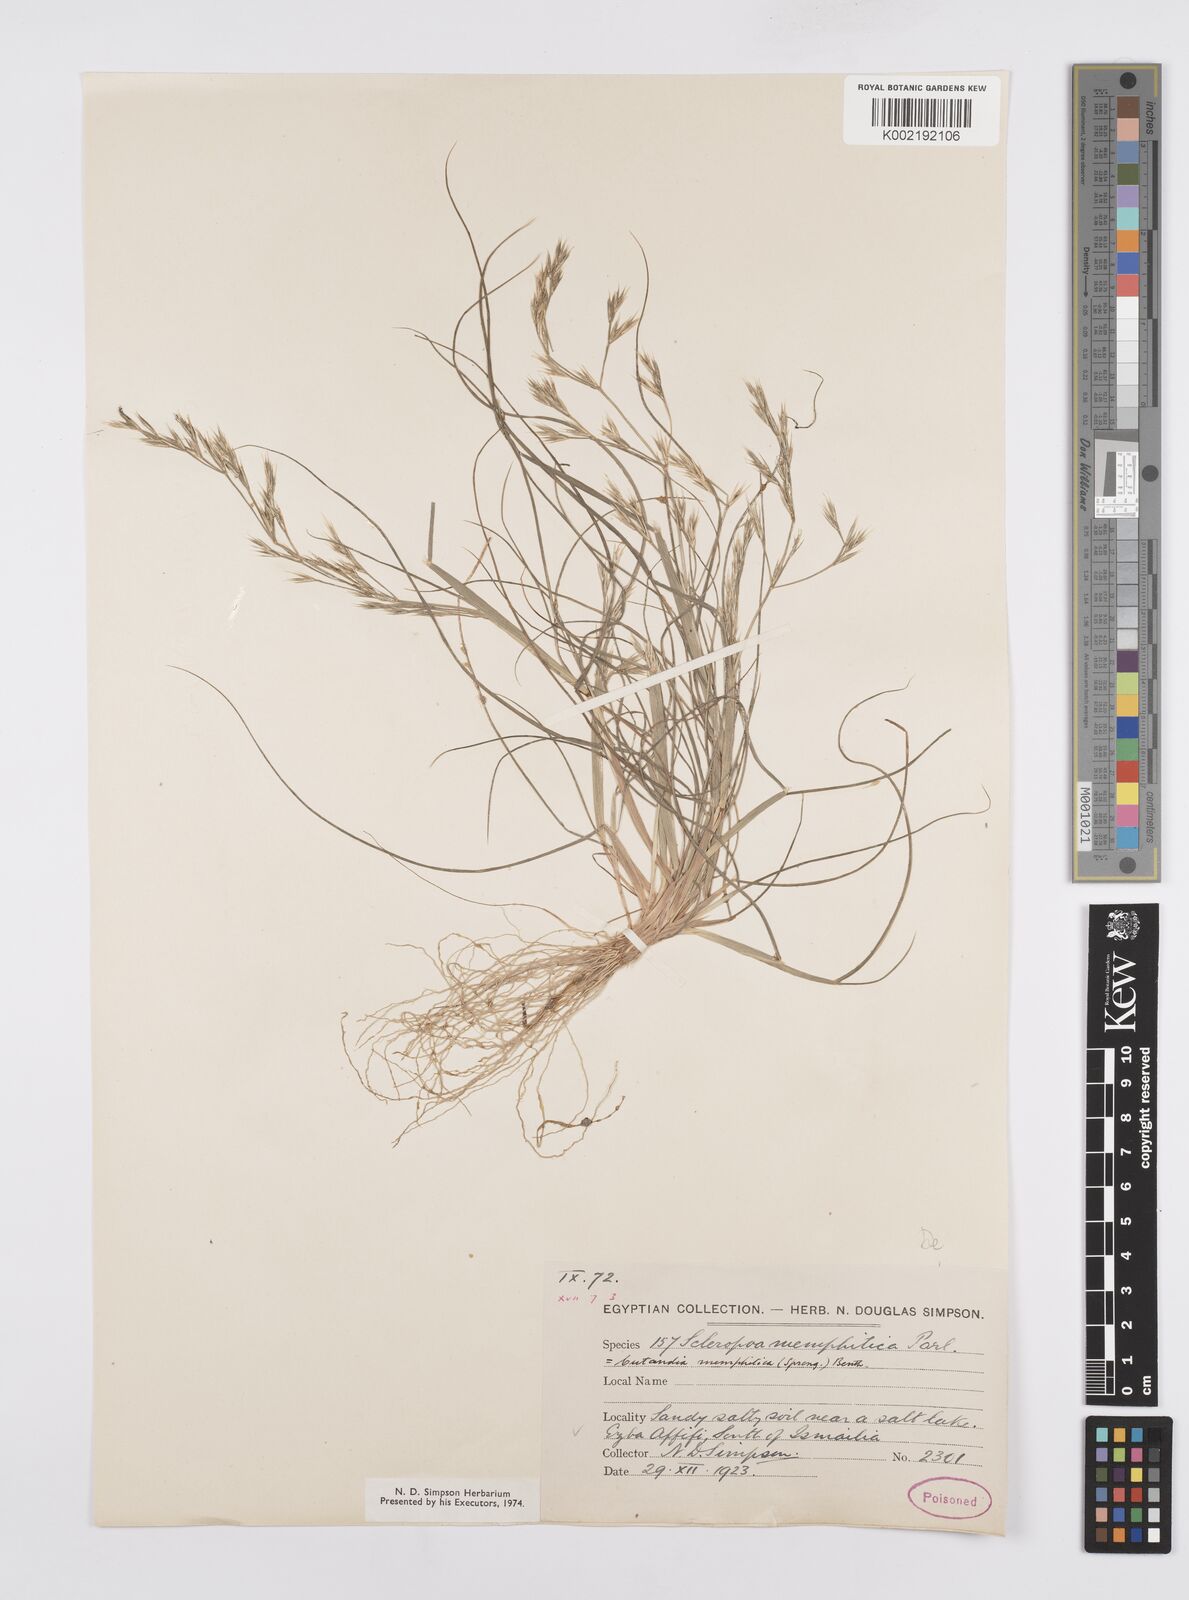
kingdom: Plantae
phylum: Tracheophyta
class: Liliopsida
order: Poales
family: Poaceae
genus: Cutandia
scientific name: Cutandia memphitica
